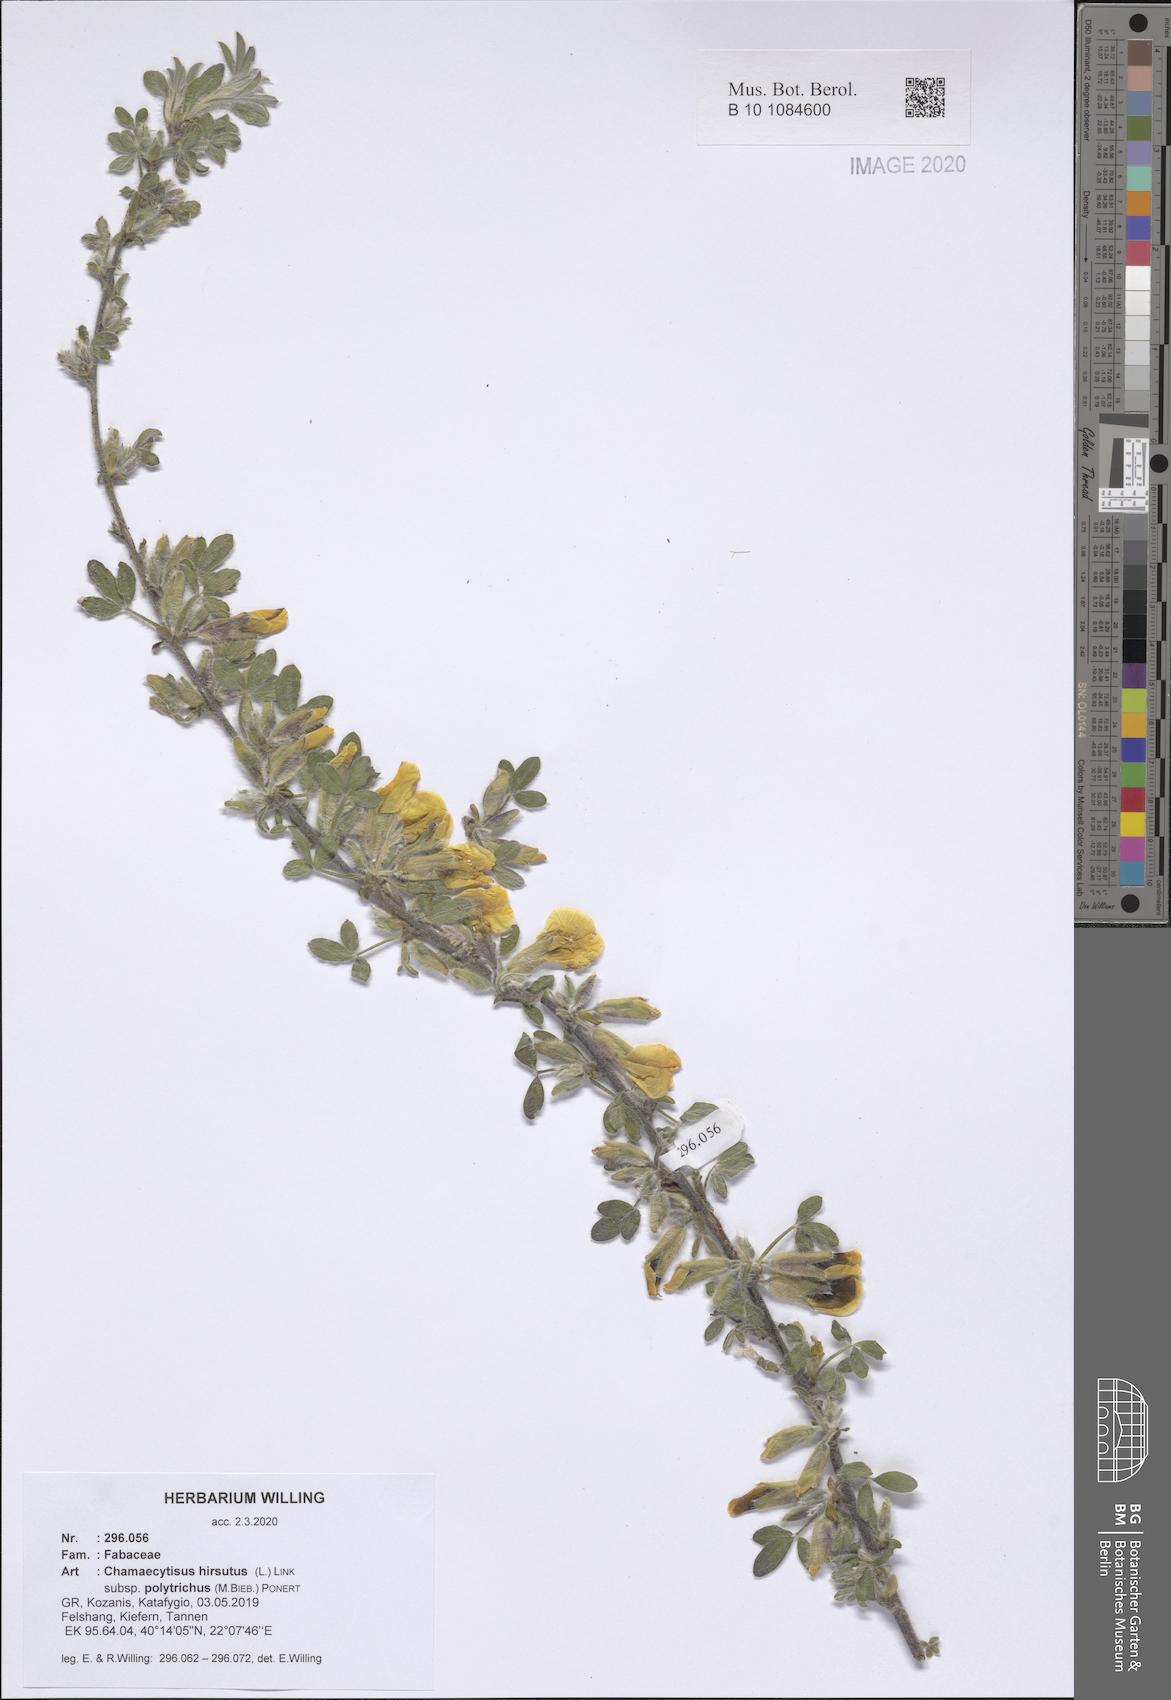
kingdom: Plantae
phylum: Tracheophyta
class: Magnoliopsida
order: Fabales
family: Fabaceae
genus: Chamaecytisus
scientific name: Chamaecytisus hirsutus
